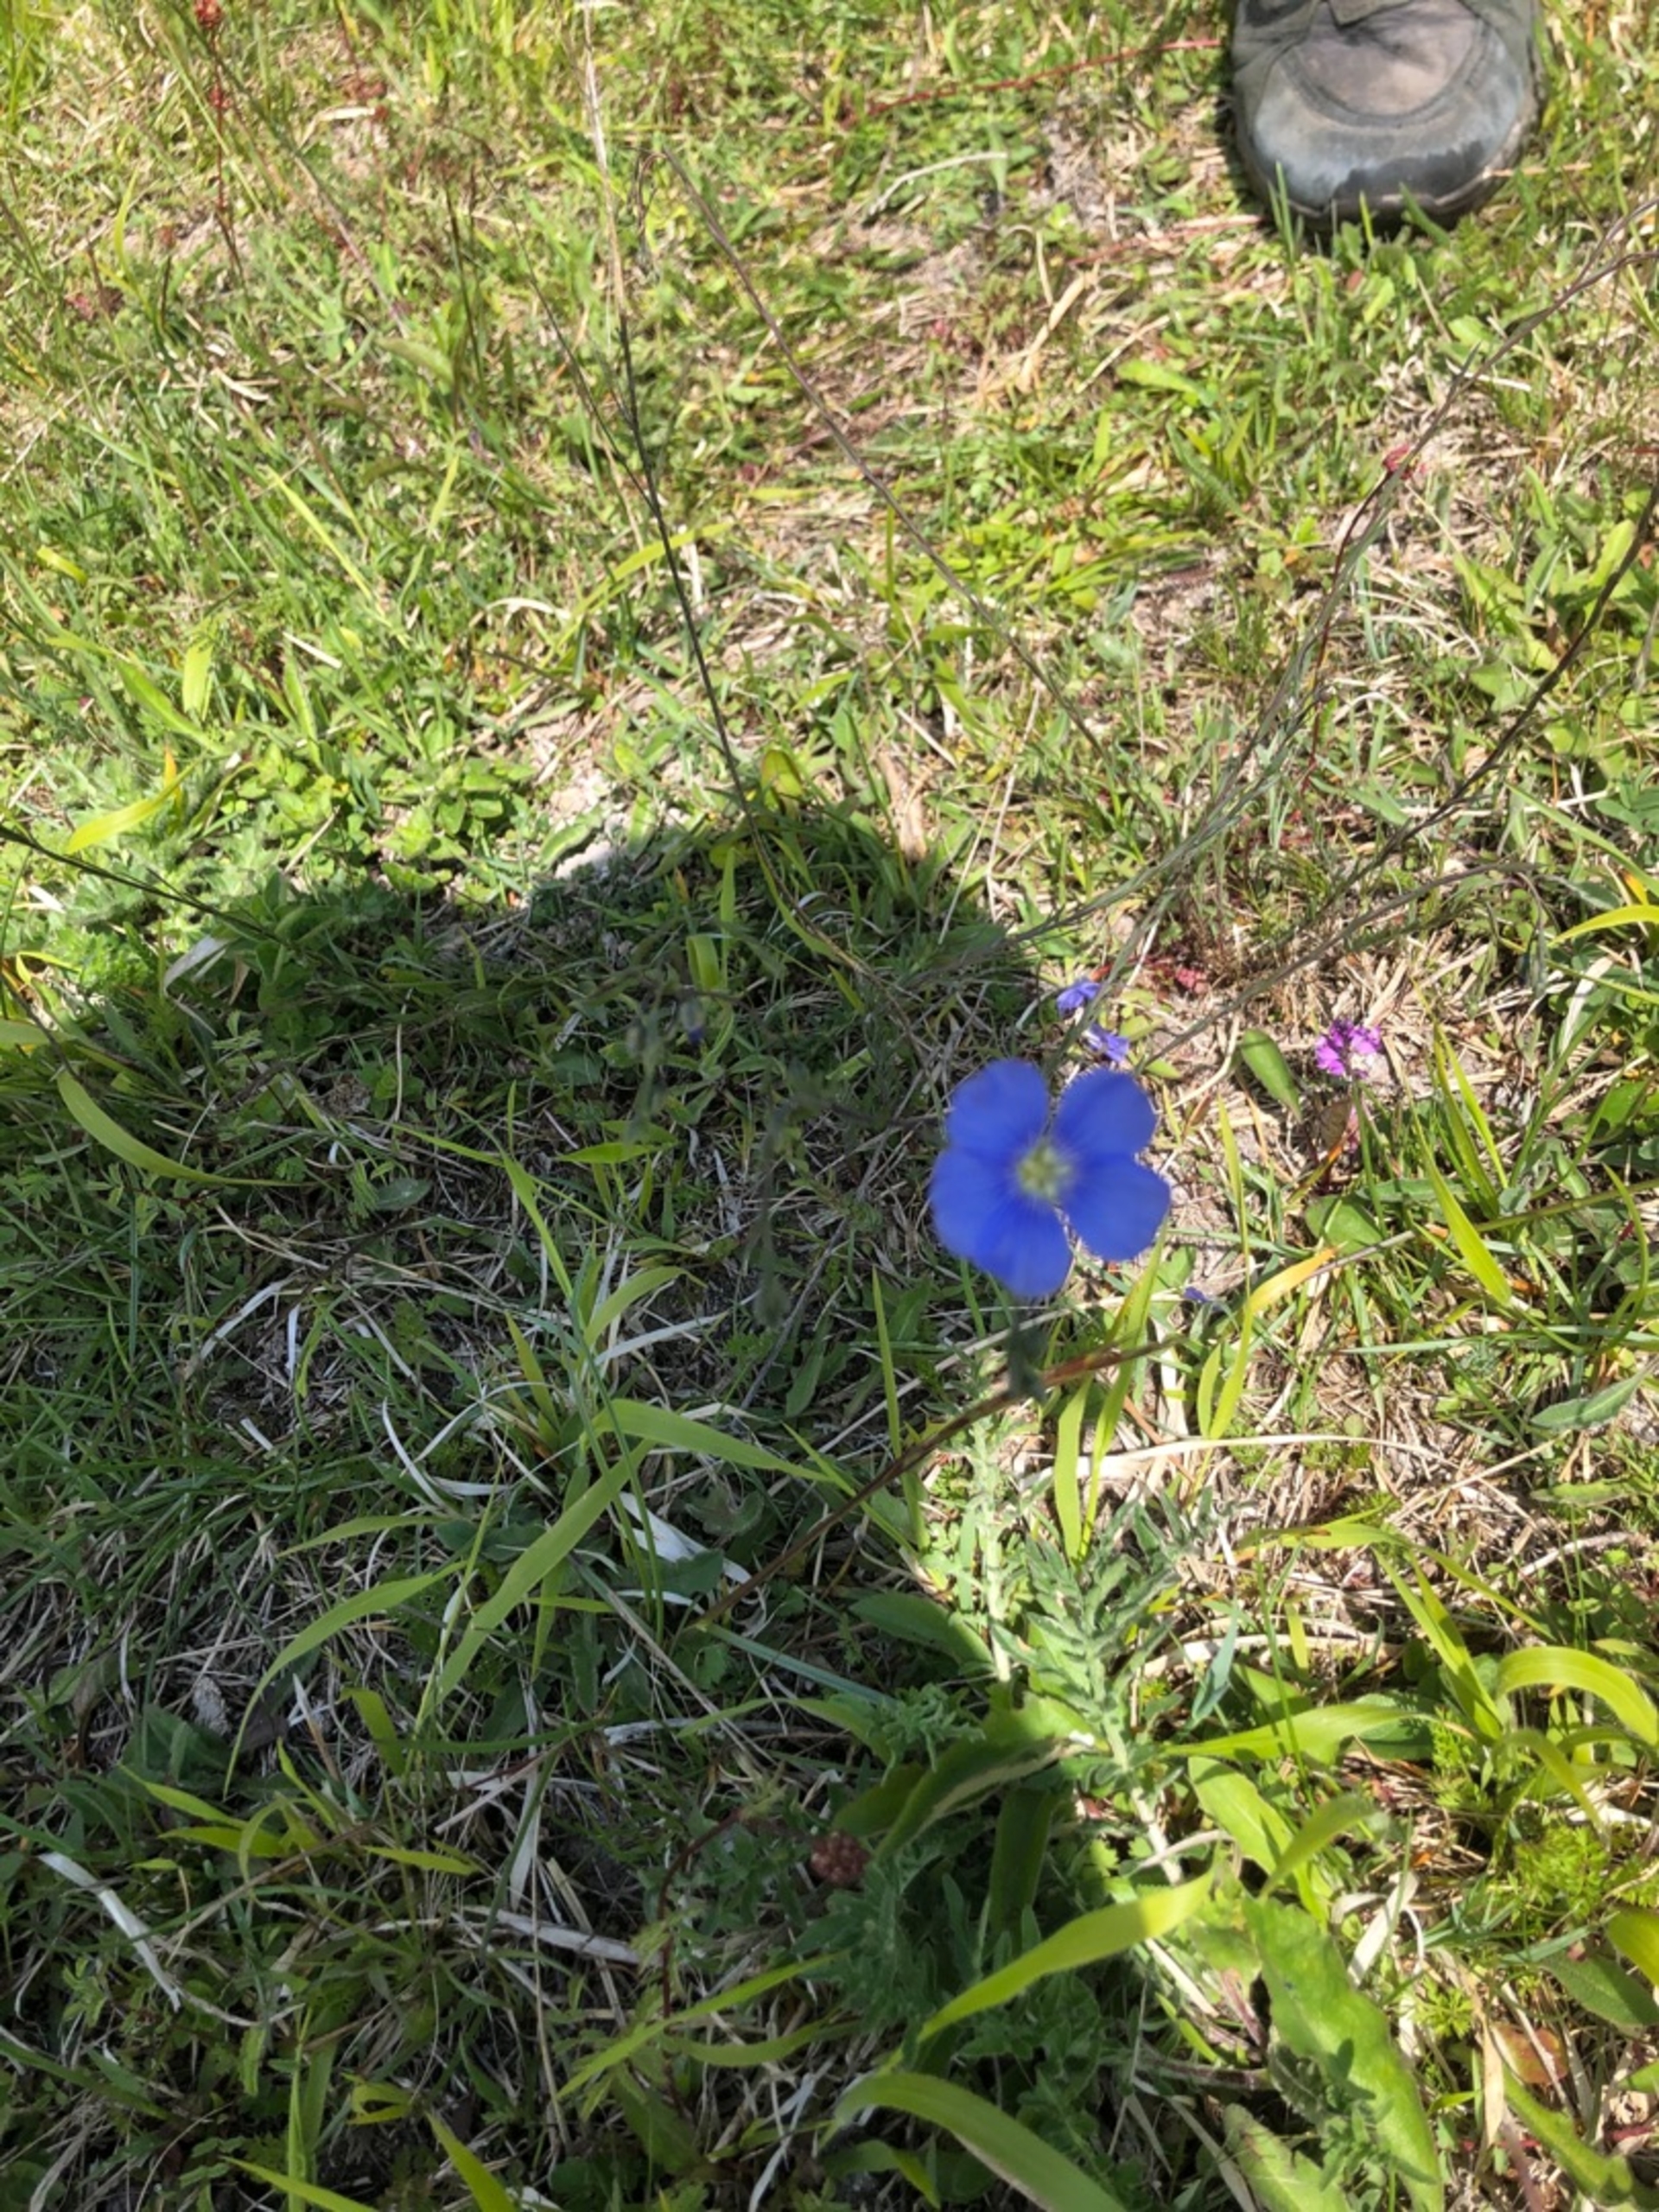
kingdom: Plantae
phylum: Tracheophyta
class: Magnoliopsida
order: Malpighiales
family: Linaceae
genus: Linum
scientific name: Linum austriacum
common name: Østrigsk hør
